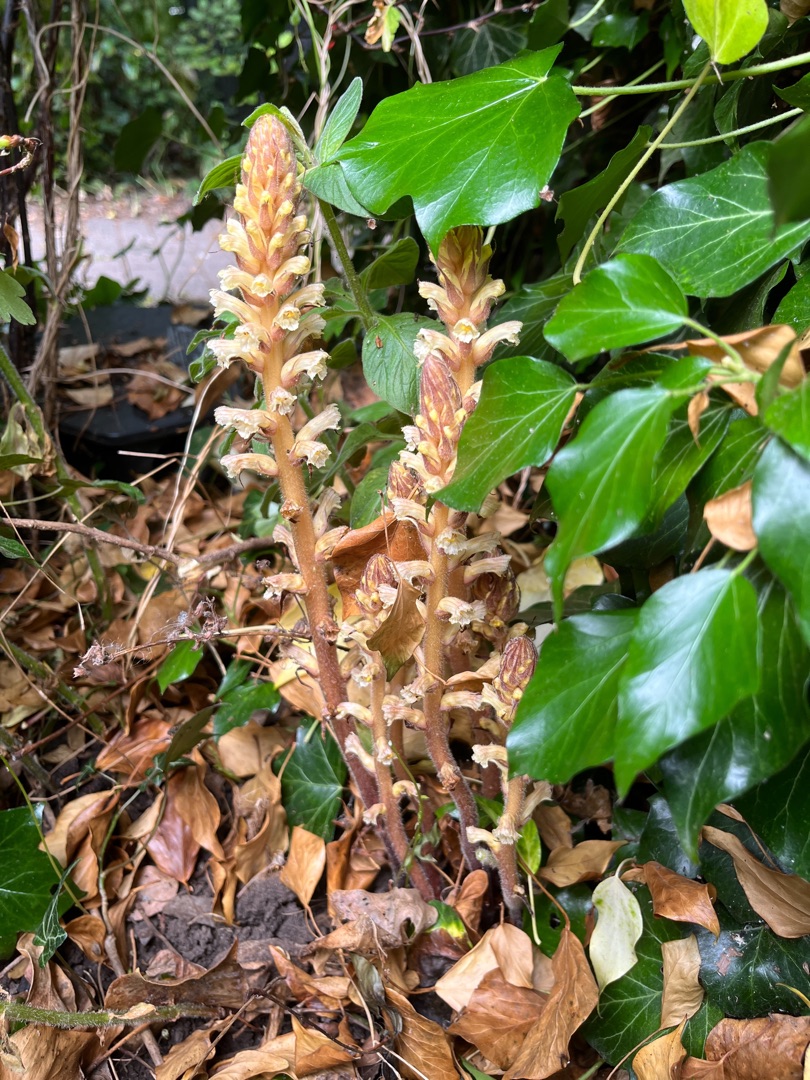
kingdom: Plantae
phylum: Tracheophyta
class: Magnoliopsida
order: Lamiales
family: Orobanchaceae
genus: Orobanche
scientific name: Orobanche hederae
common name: Vedbend-gyvelkvæler
